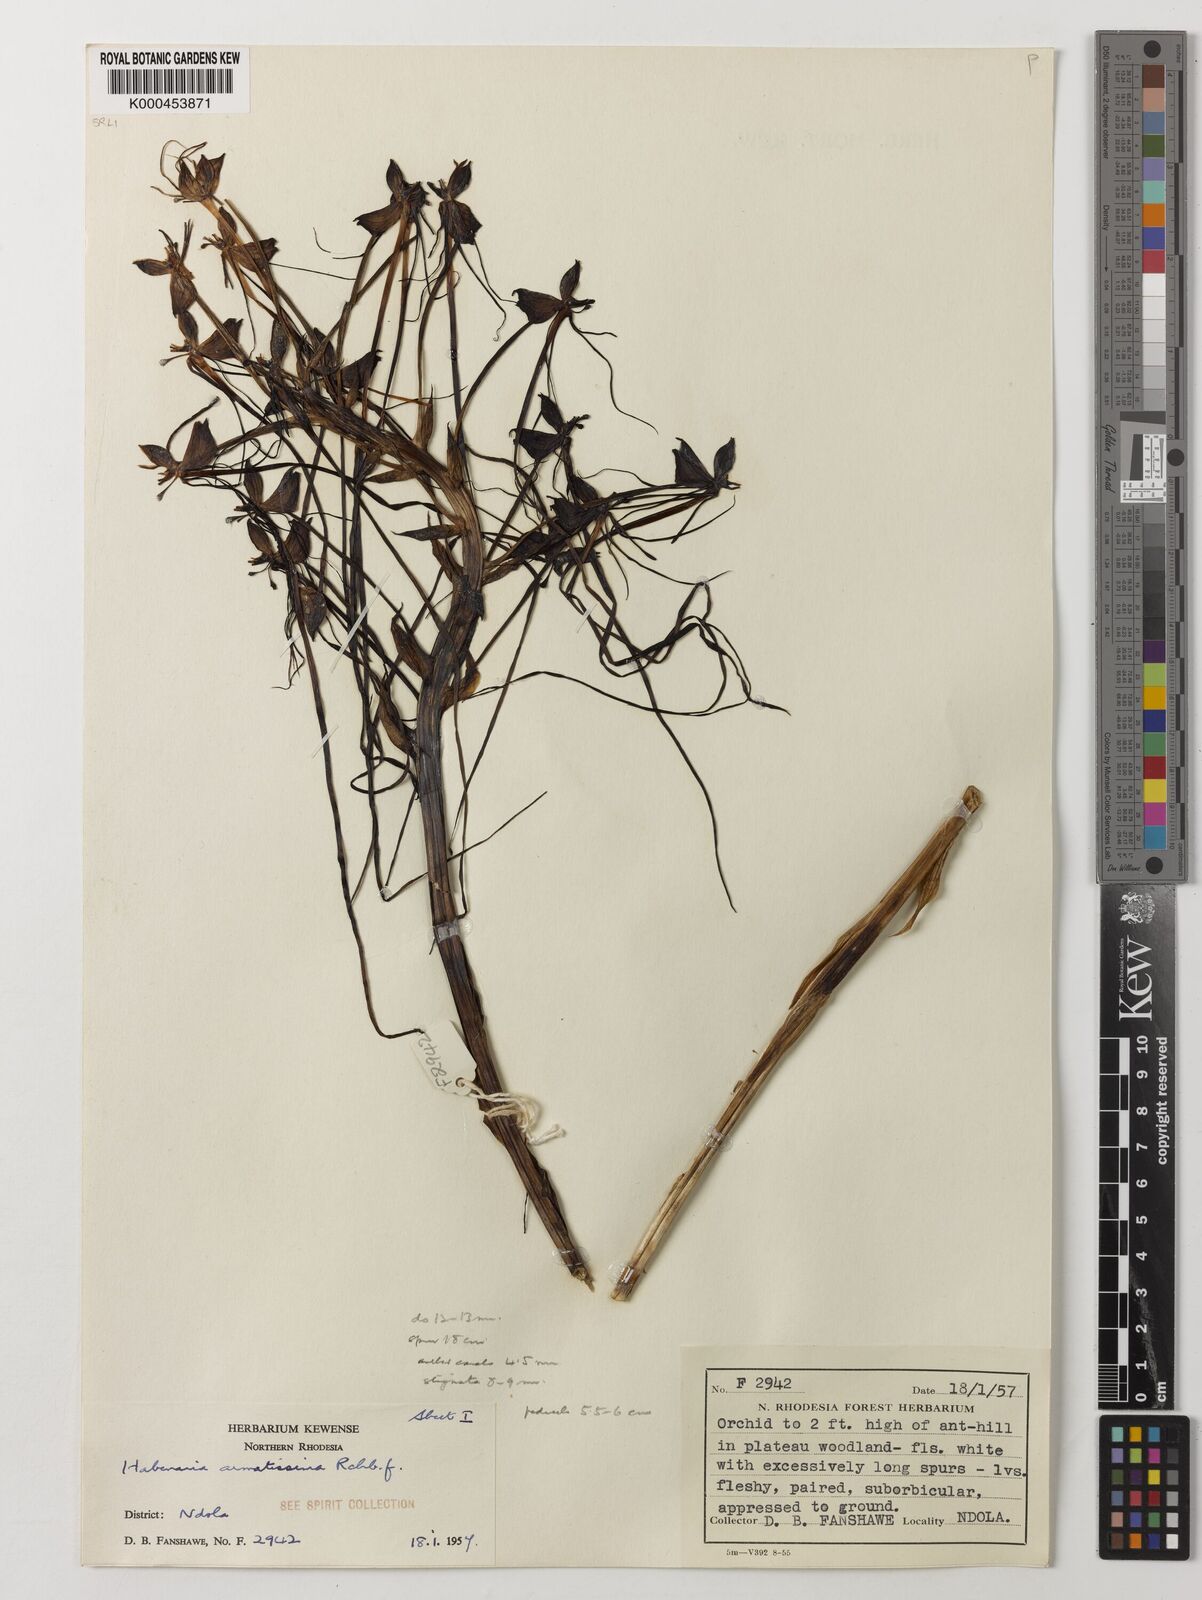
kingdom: Plantae
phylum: Tracheophyta
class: Liliopsida
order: Asparagales
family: Orchidaceae
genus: Habenaria
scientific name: Habenaria armatissima
